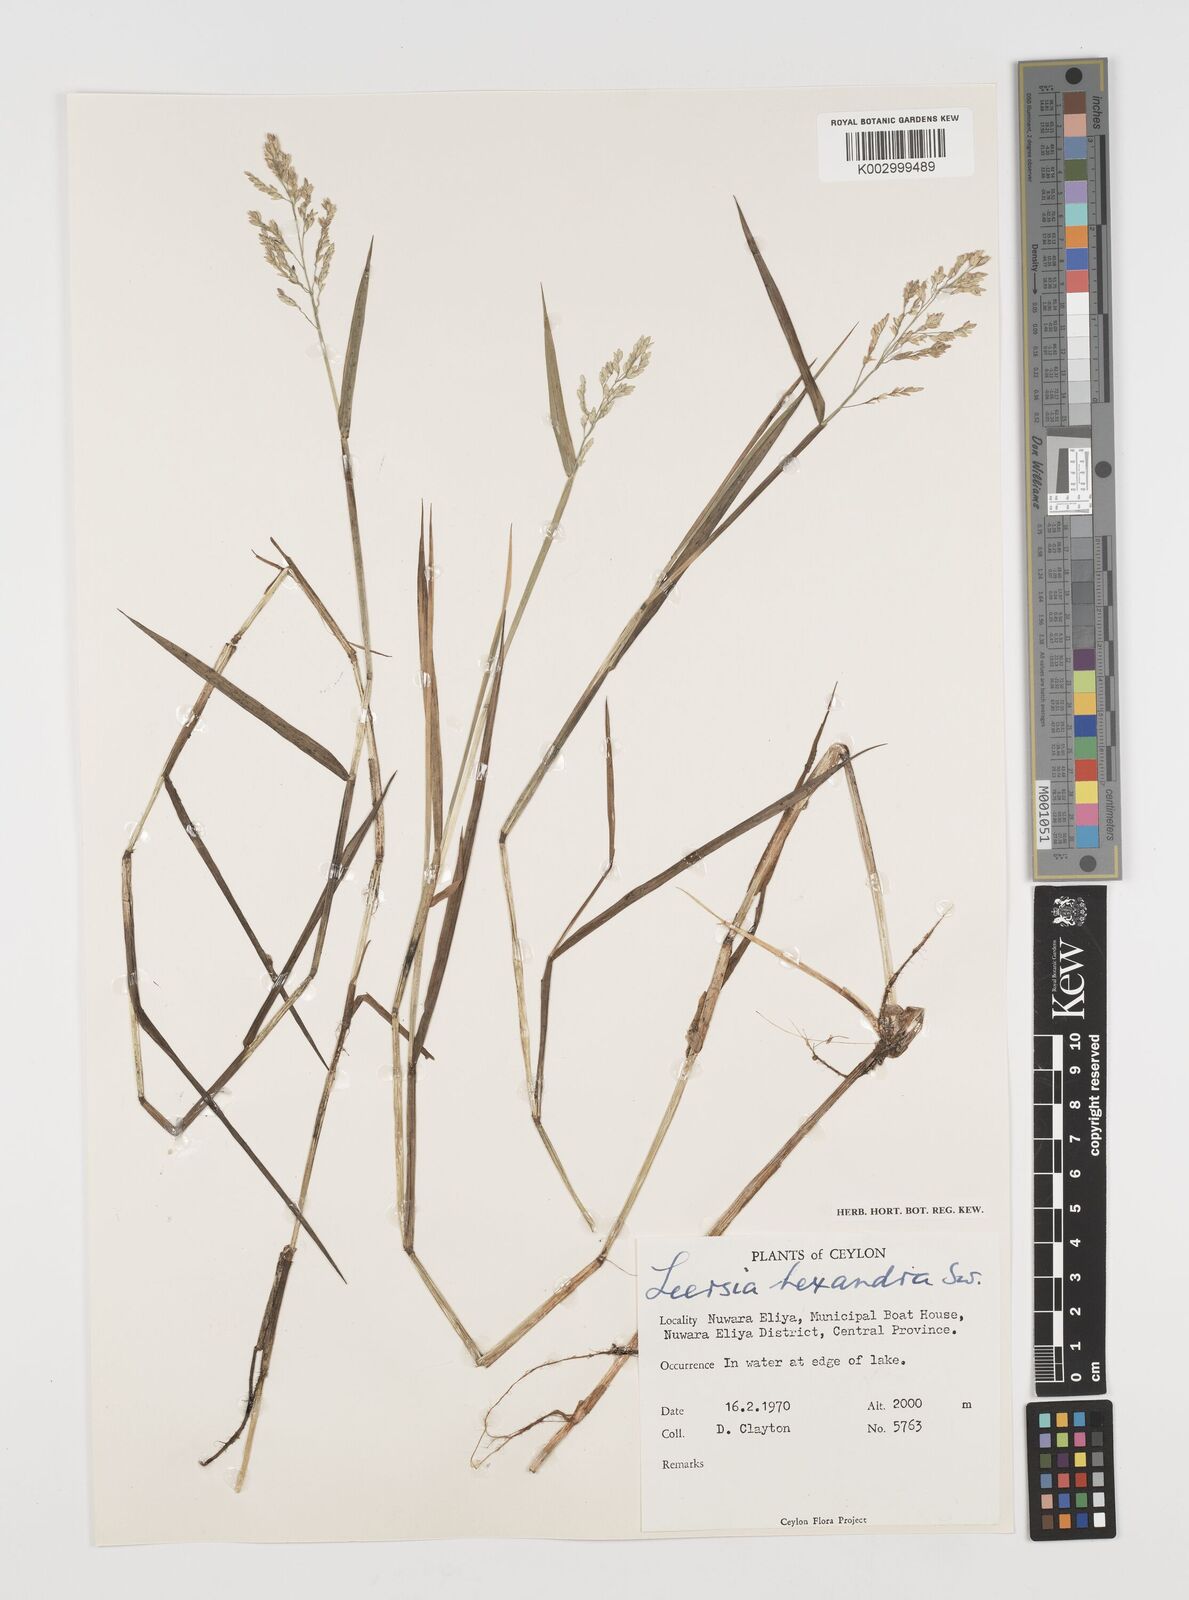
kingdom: Plantae
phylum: Tracheophyta
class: Liliopsida
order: Poales
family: Poaceae
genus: Leersia
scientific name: Leersia hexandra
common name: Southern cut grass
